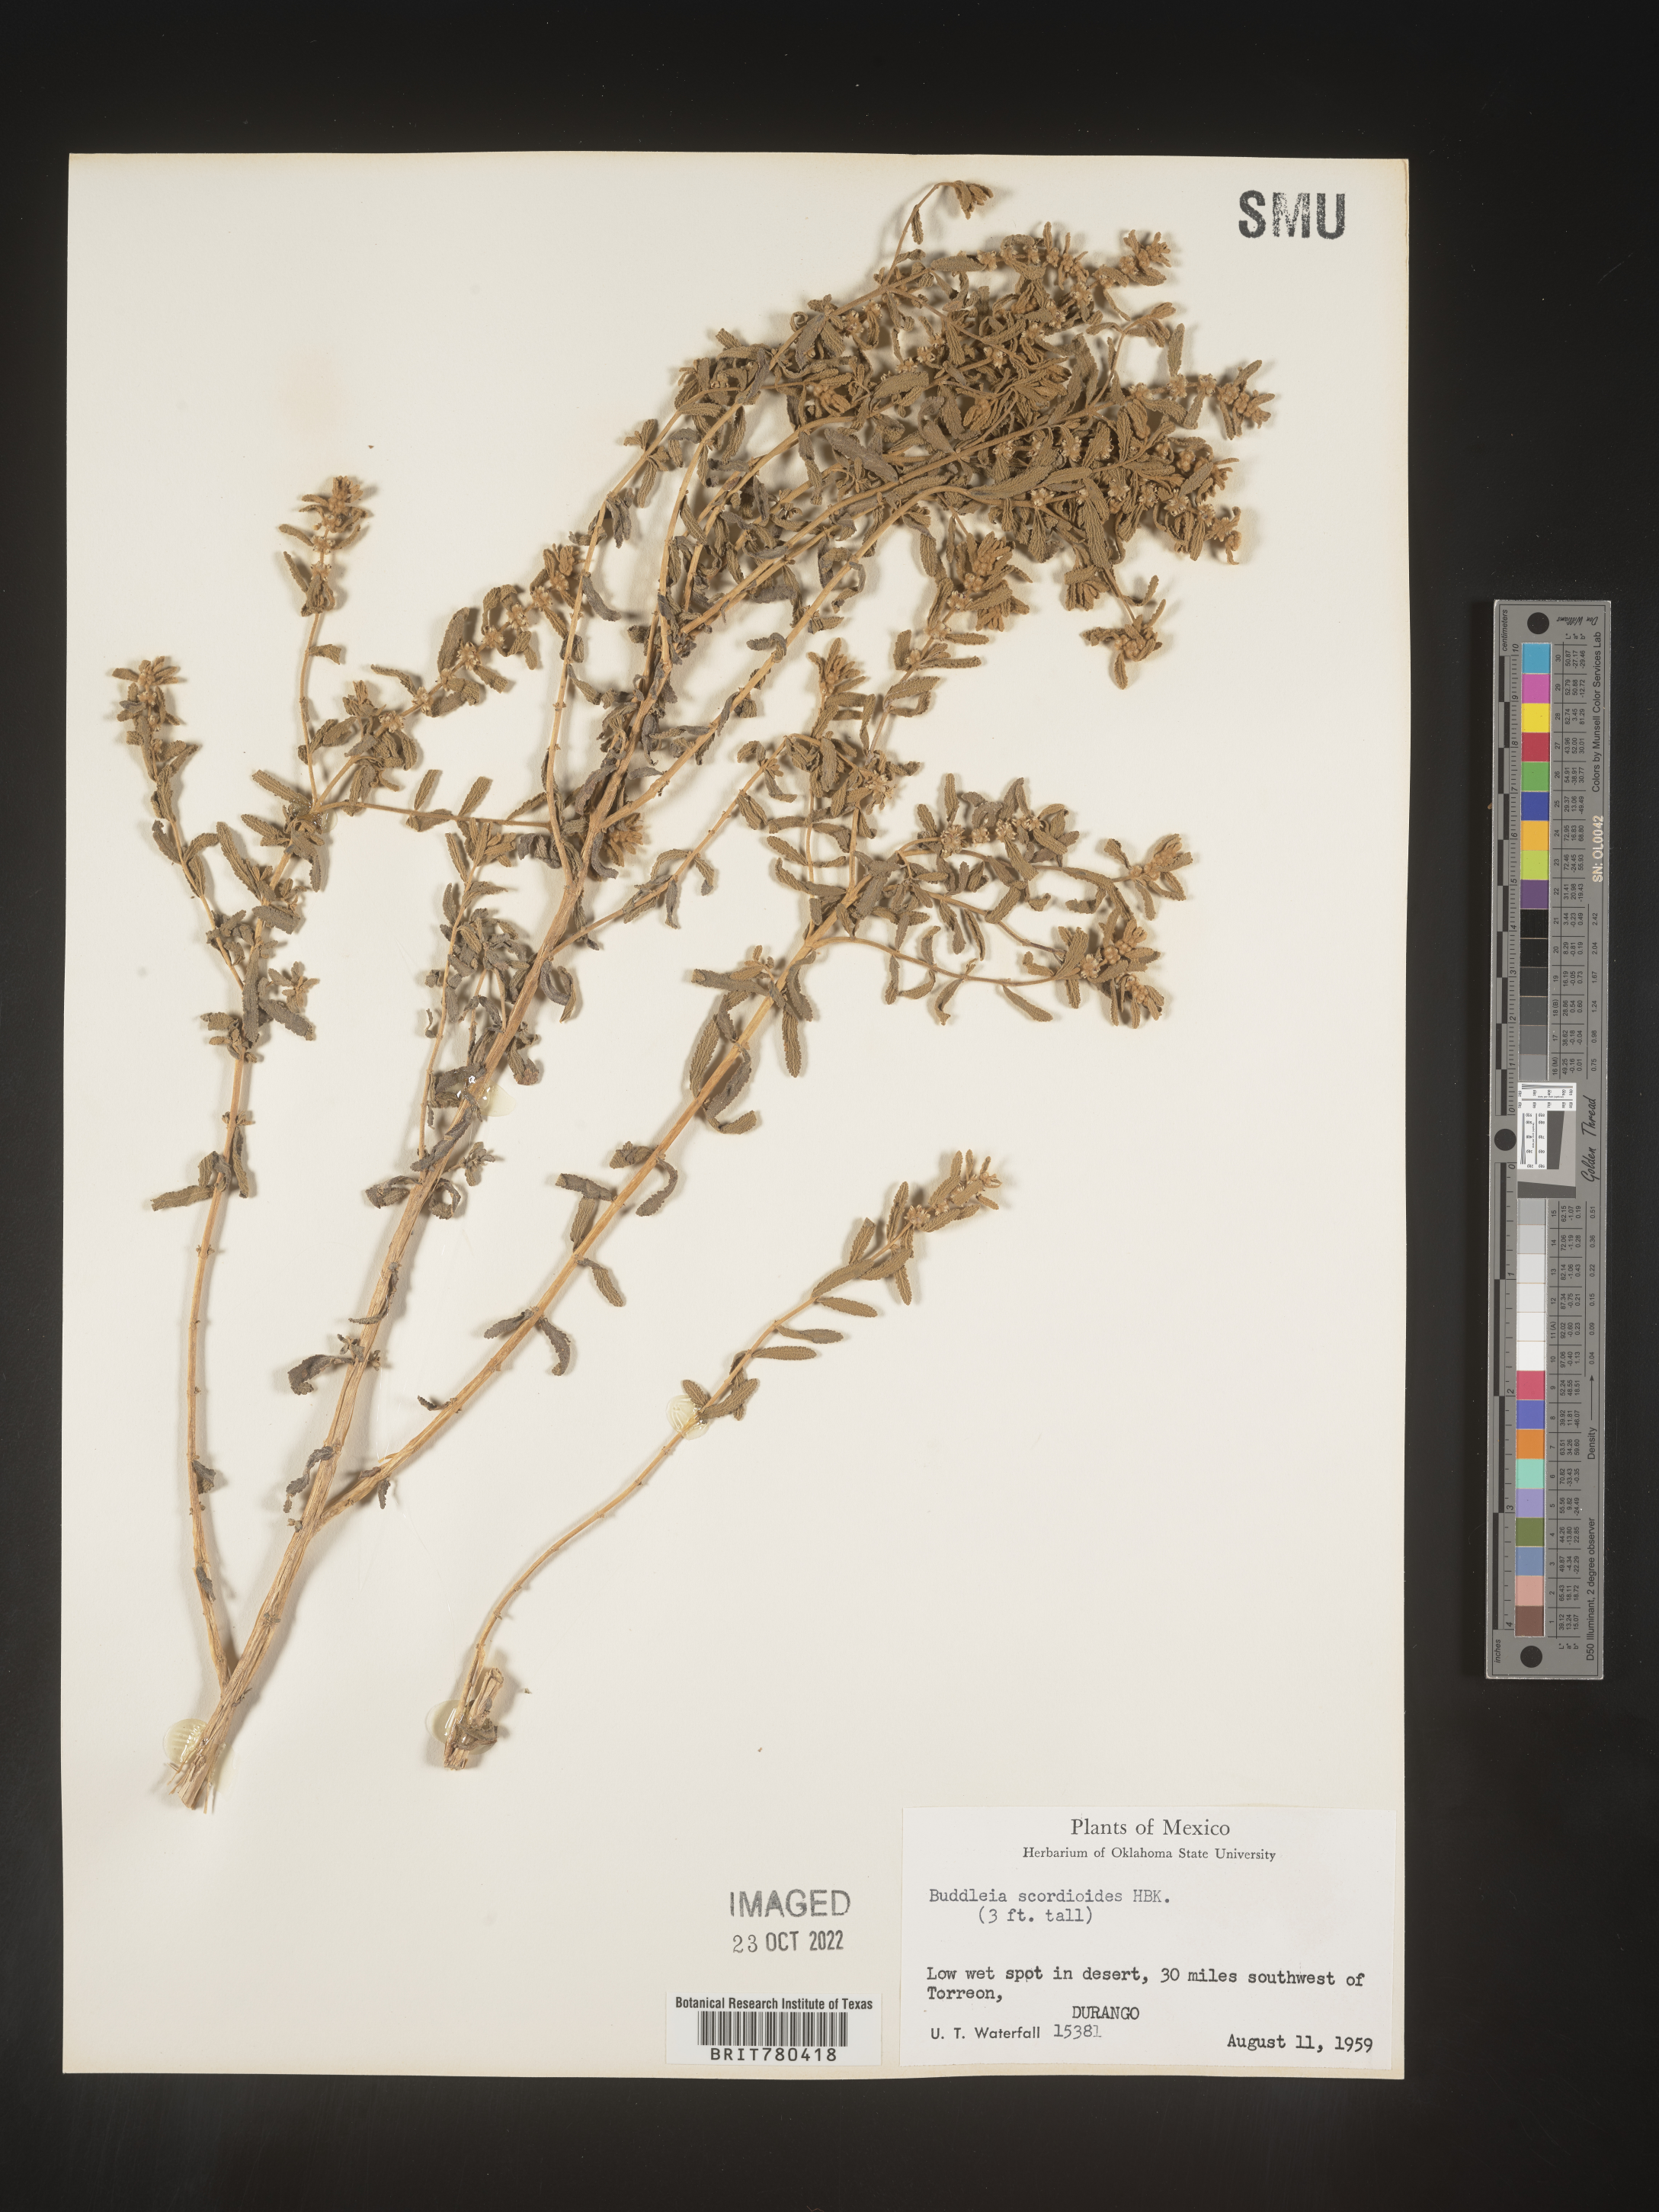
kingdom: Plantae
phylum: Tracheophyta
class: Magnoliopsida
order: Lamiales
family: Scrophulariaceae
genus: Buddleja
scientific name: Buddleja
